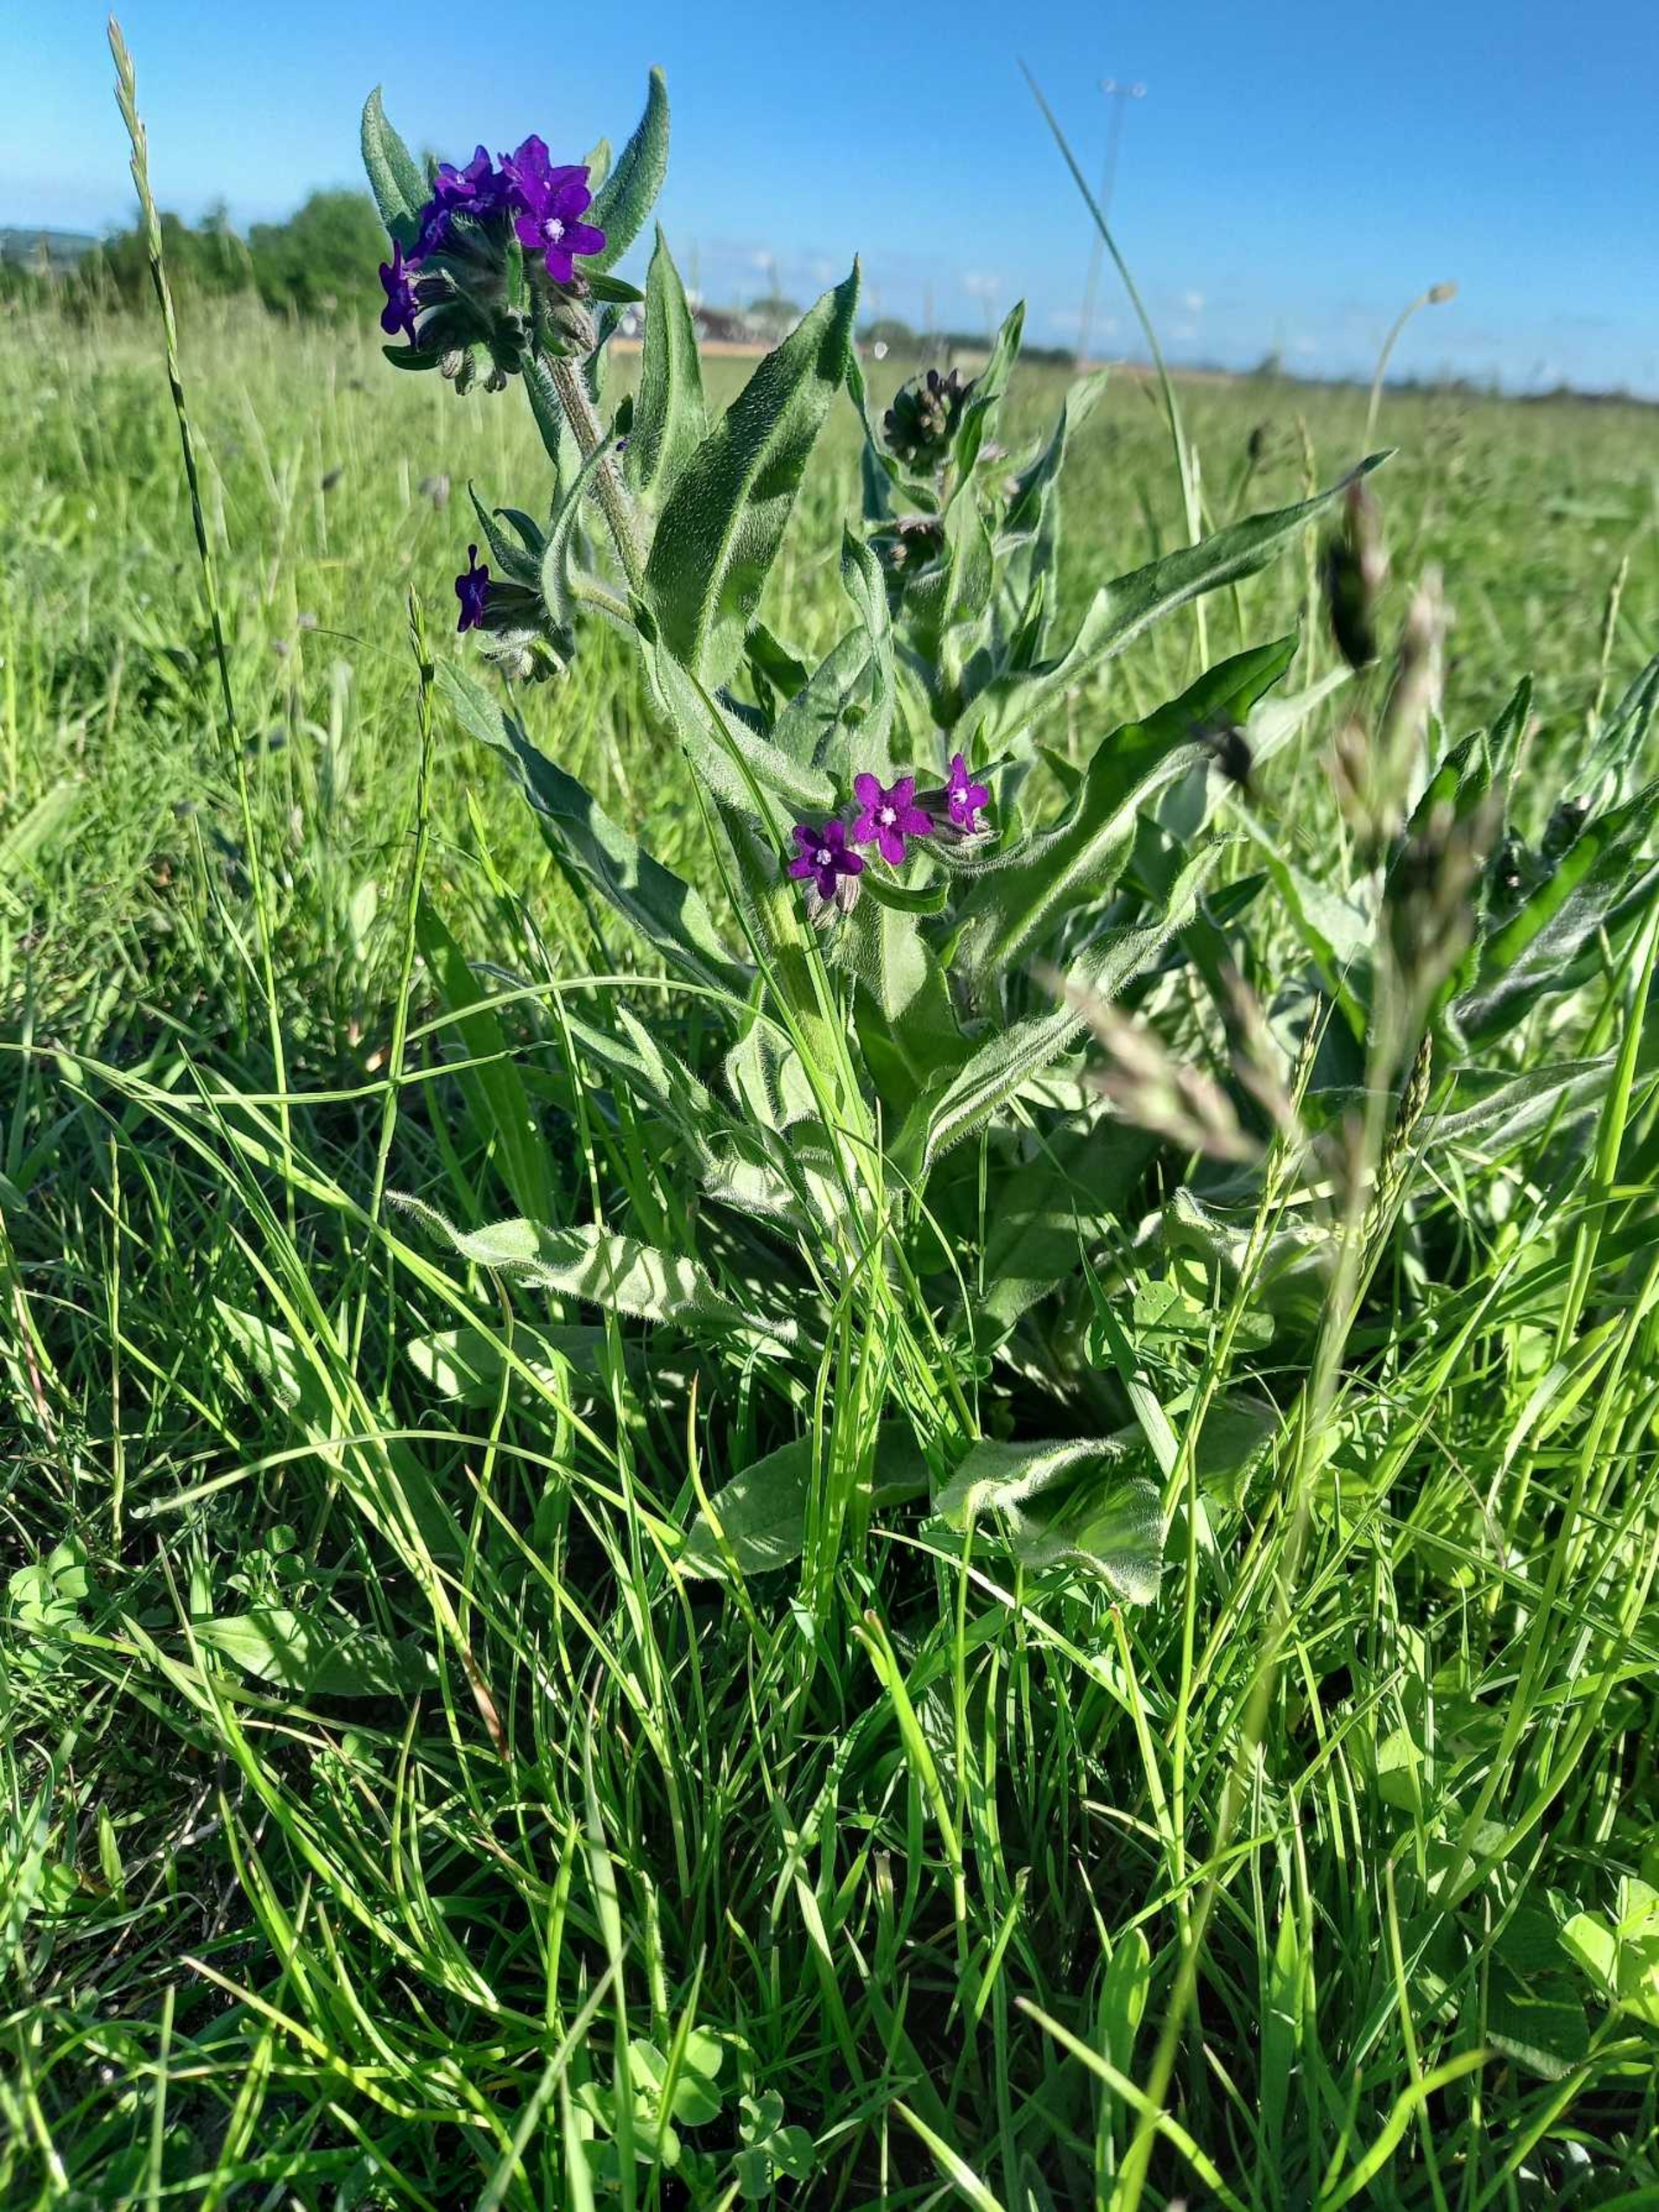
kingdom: Plantae
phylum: Tracheophyta
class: Magnoliopsida
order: Boraginales
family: Boraginaceae
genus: Anchusa
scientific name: Anchusa officinalis
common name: Læge-oksetunge
